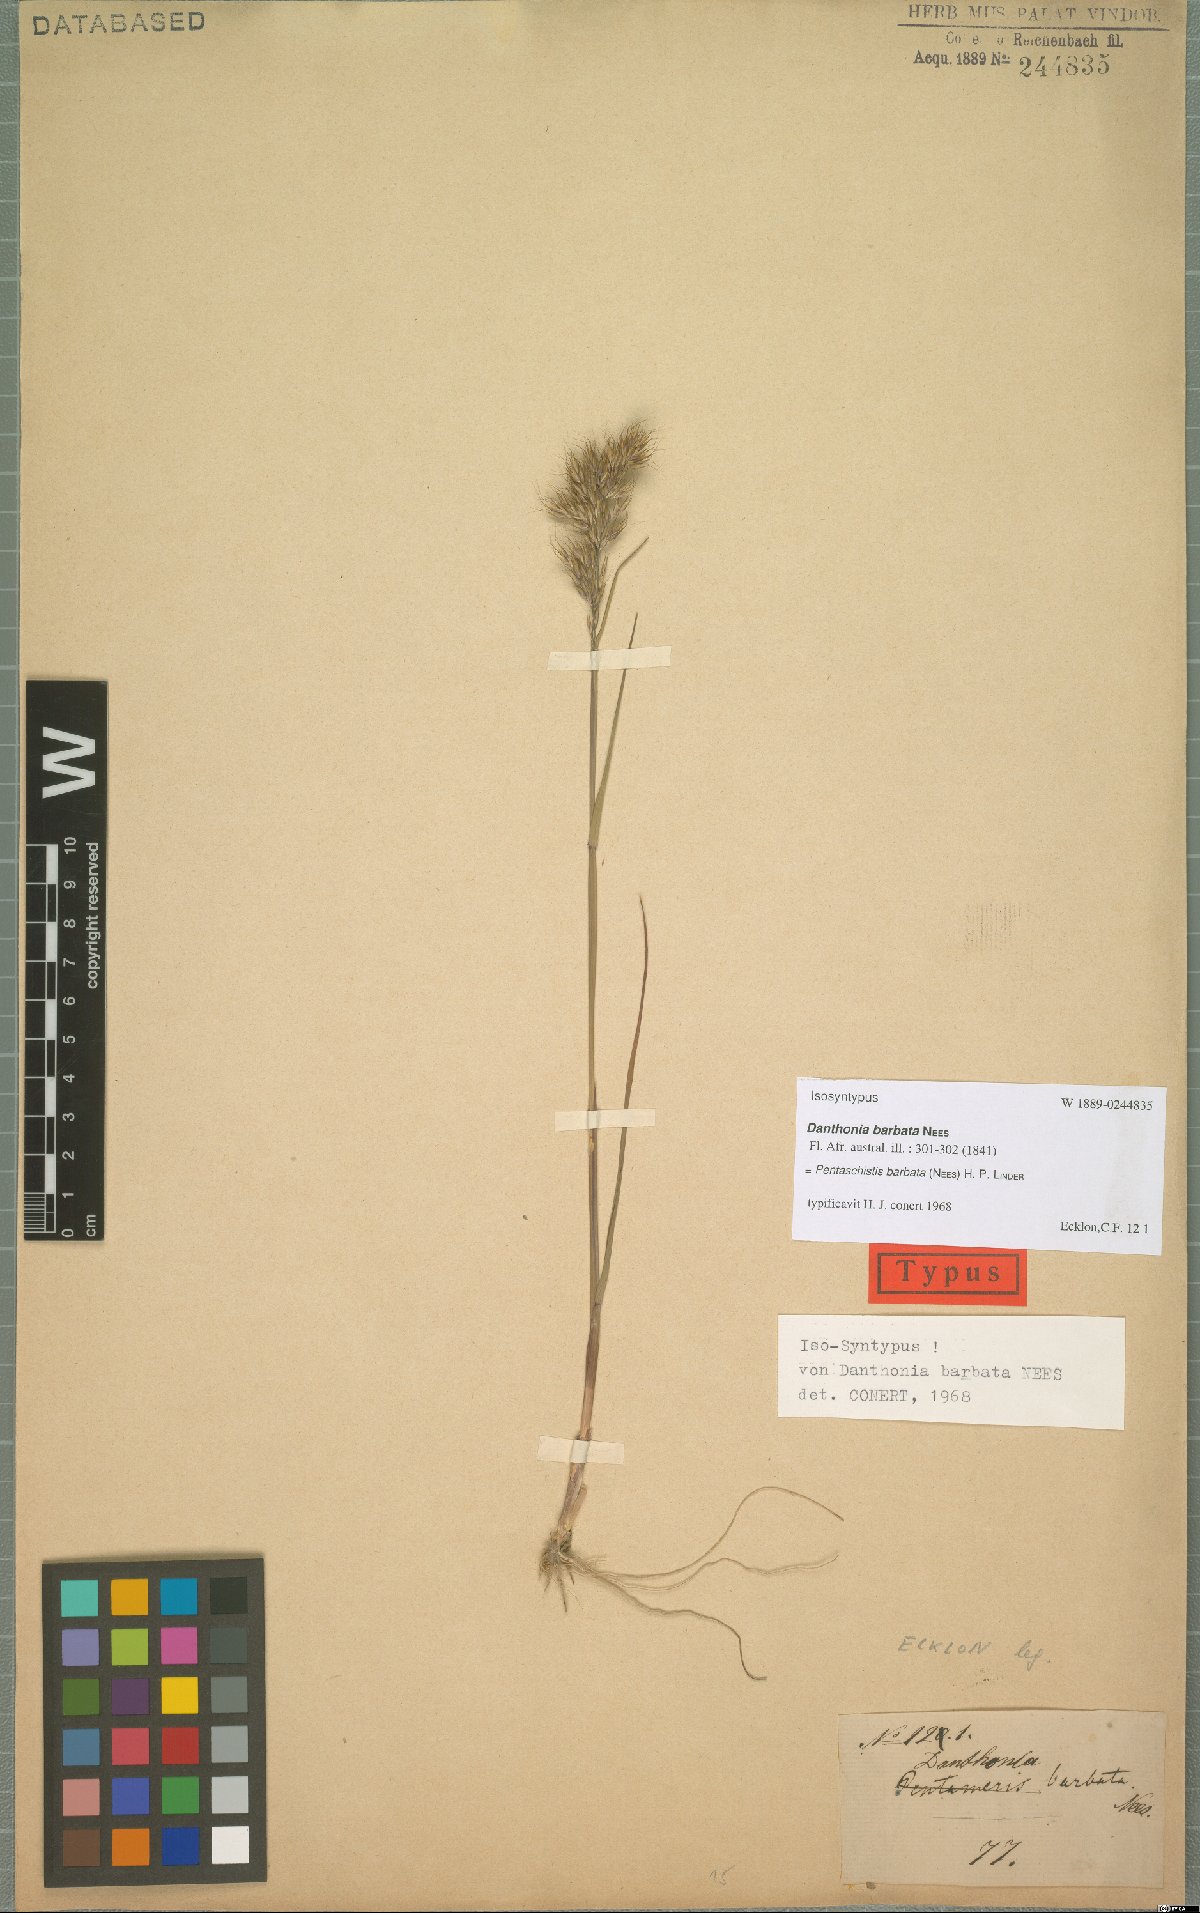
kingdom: Plantae
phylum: Tracheophyta
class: Liliopsida
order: Poales
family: Poaceae
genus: Pentameris
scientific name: Pentameris barbata
